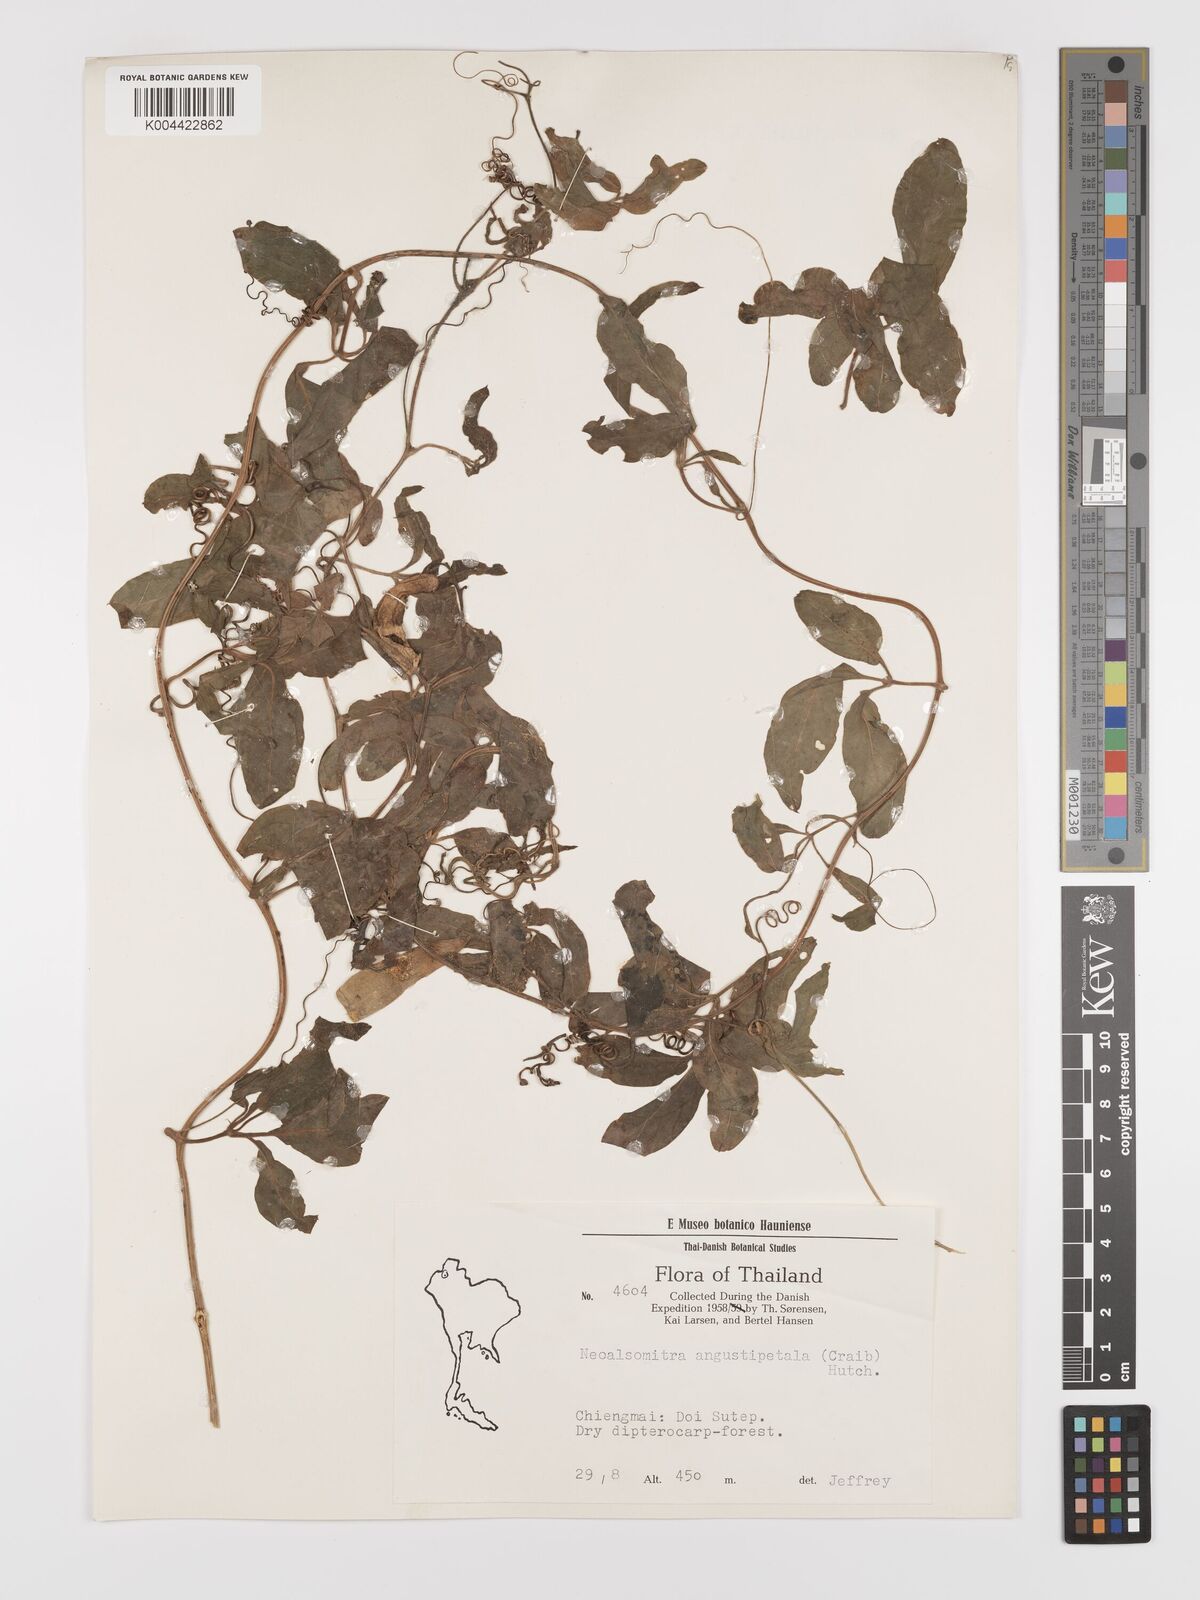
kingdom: Plantae
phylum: Tracheophyta
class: Magnoliopsida
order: Cucurbitales
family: Cucurbitaceae
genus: Neoalsomitra
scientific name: Neoalsomitra angustipetala
